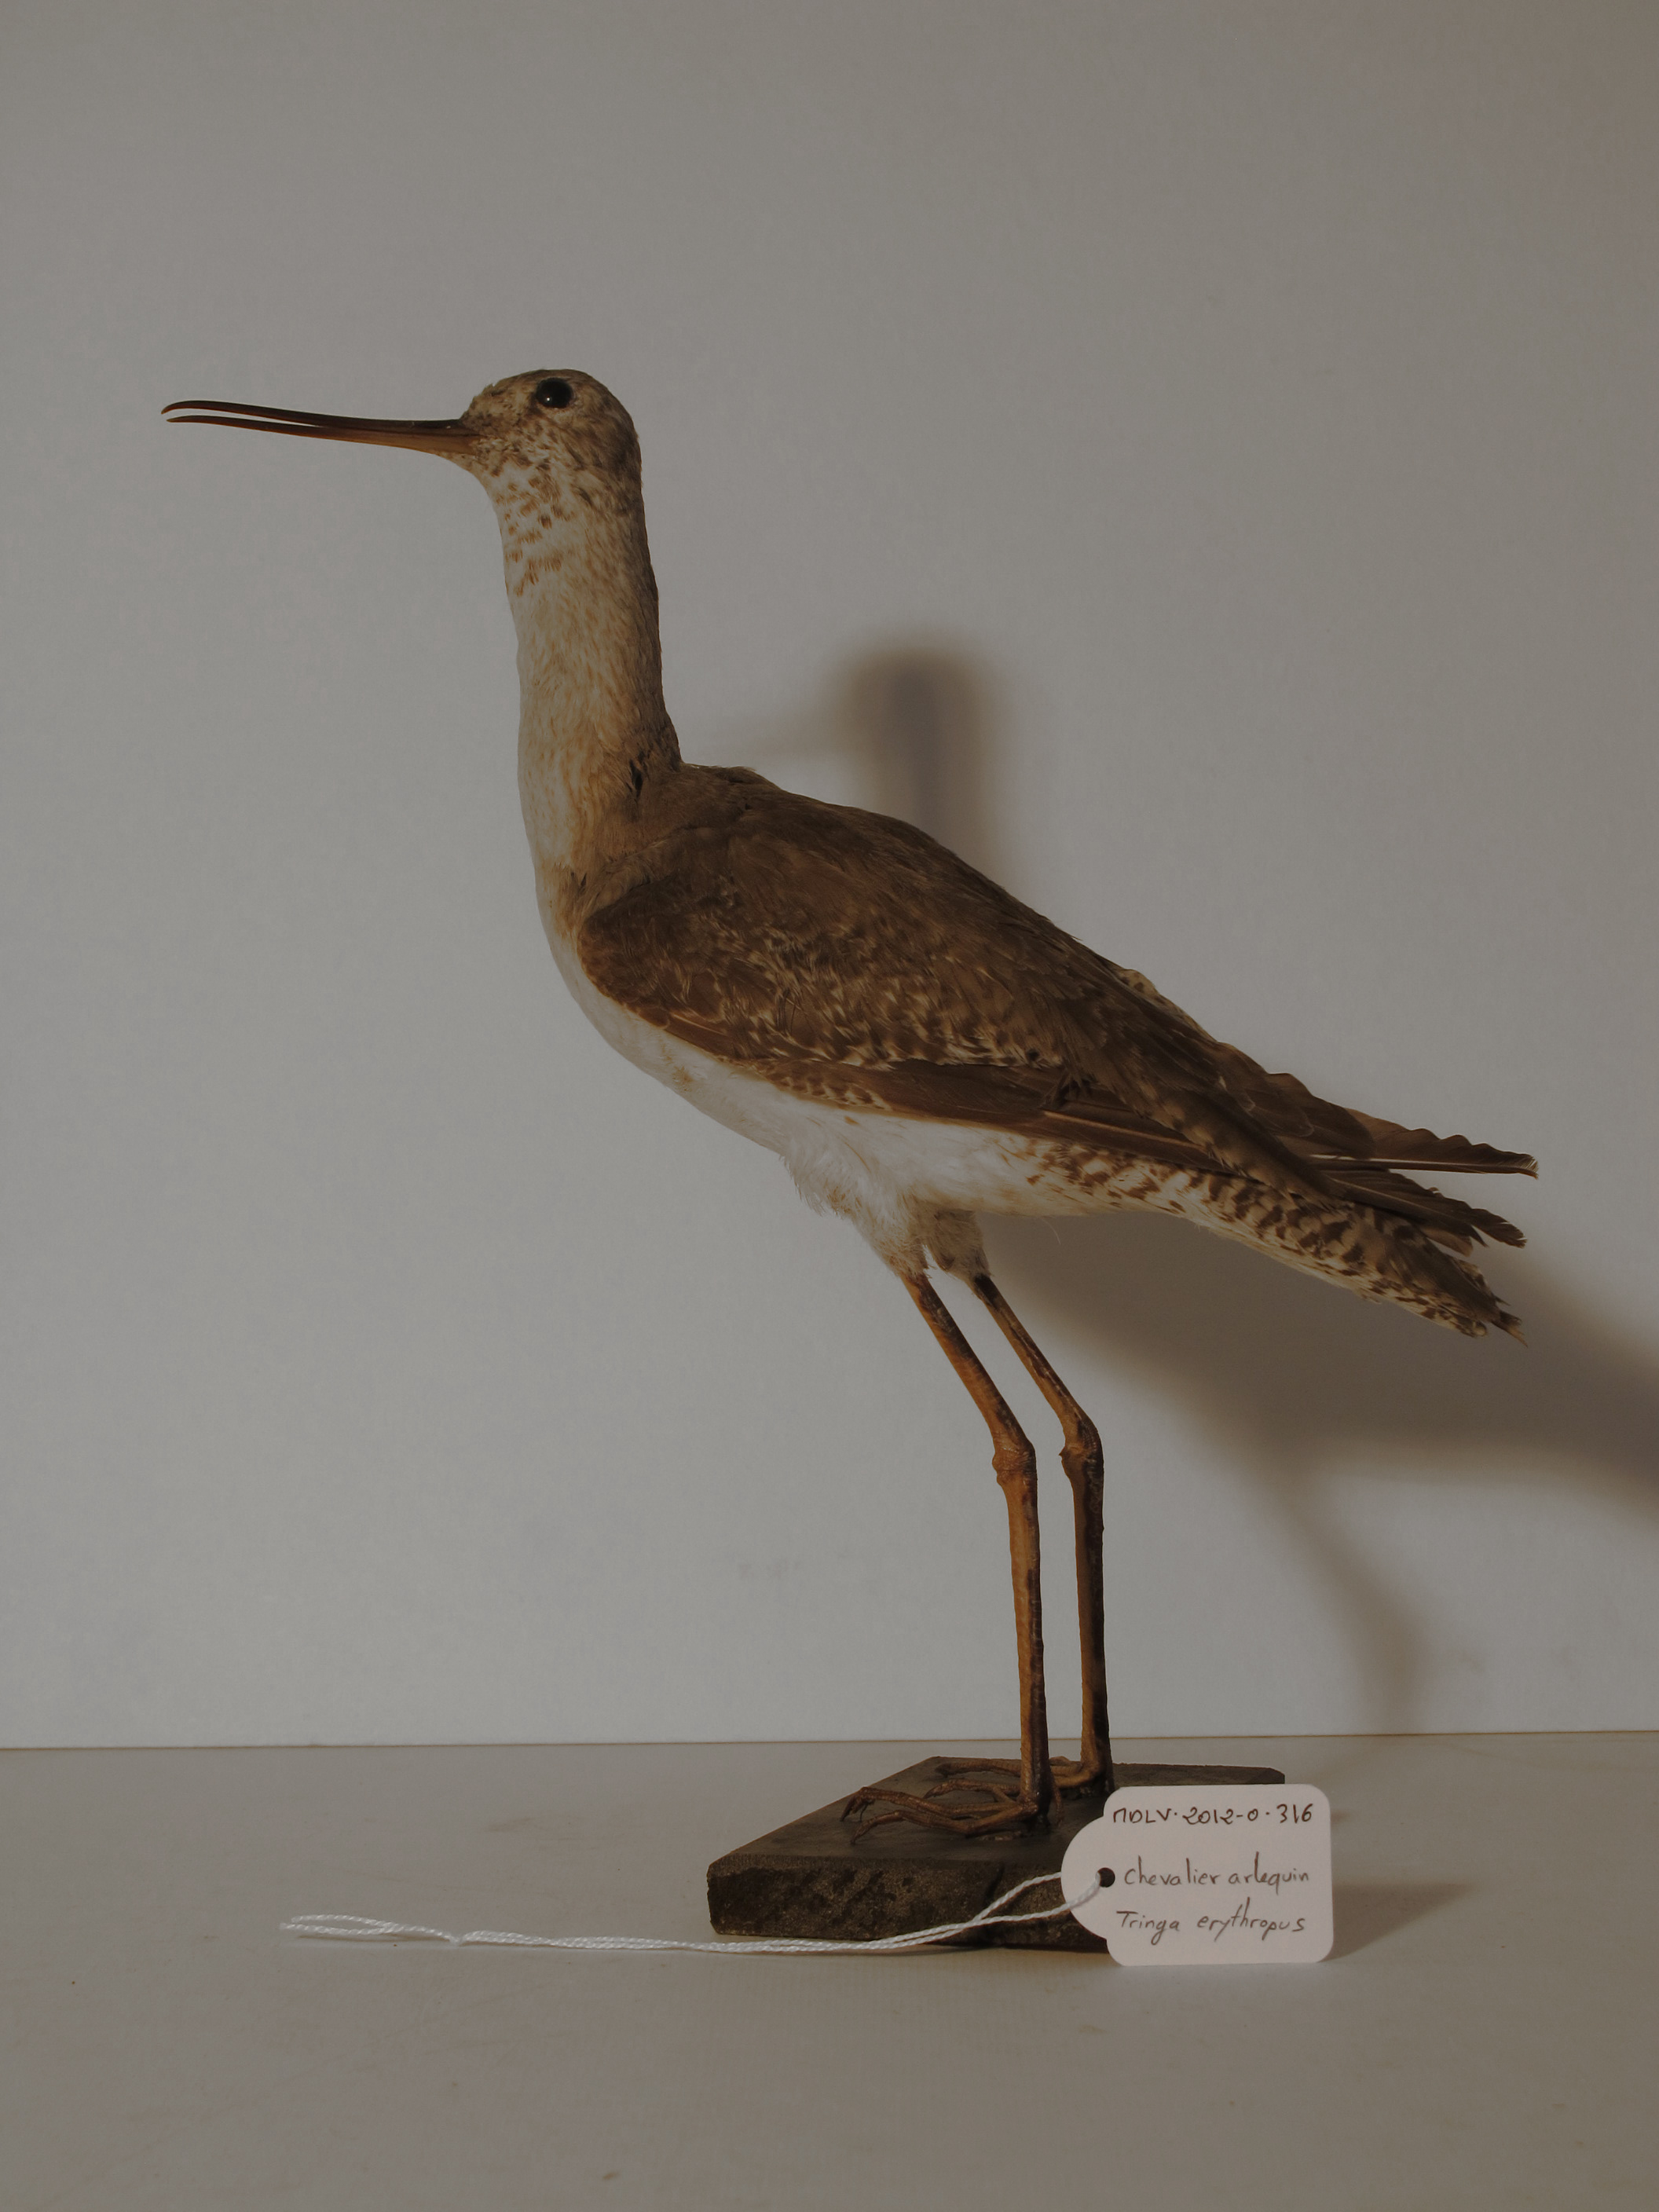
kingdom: Animalia
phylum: Chordata
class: Aves
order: Charadriiformes
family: Scolopacidae
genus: Tringa
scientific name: Tringa erythropus
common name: Spotted Redshank
